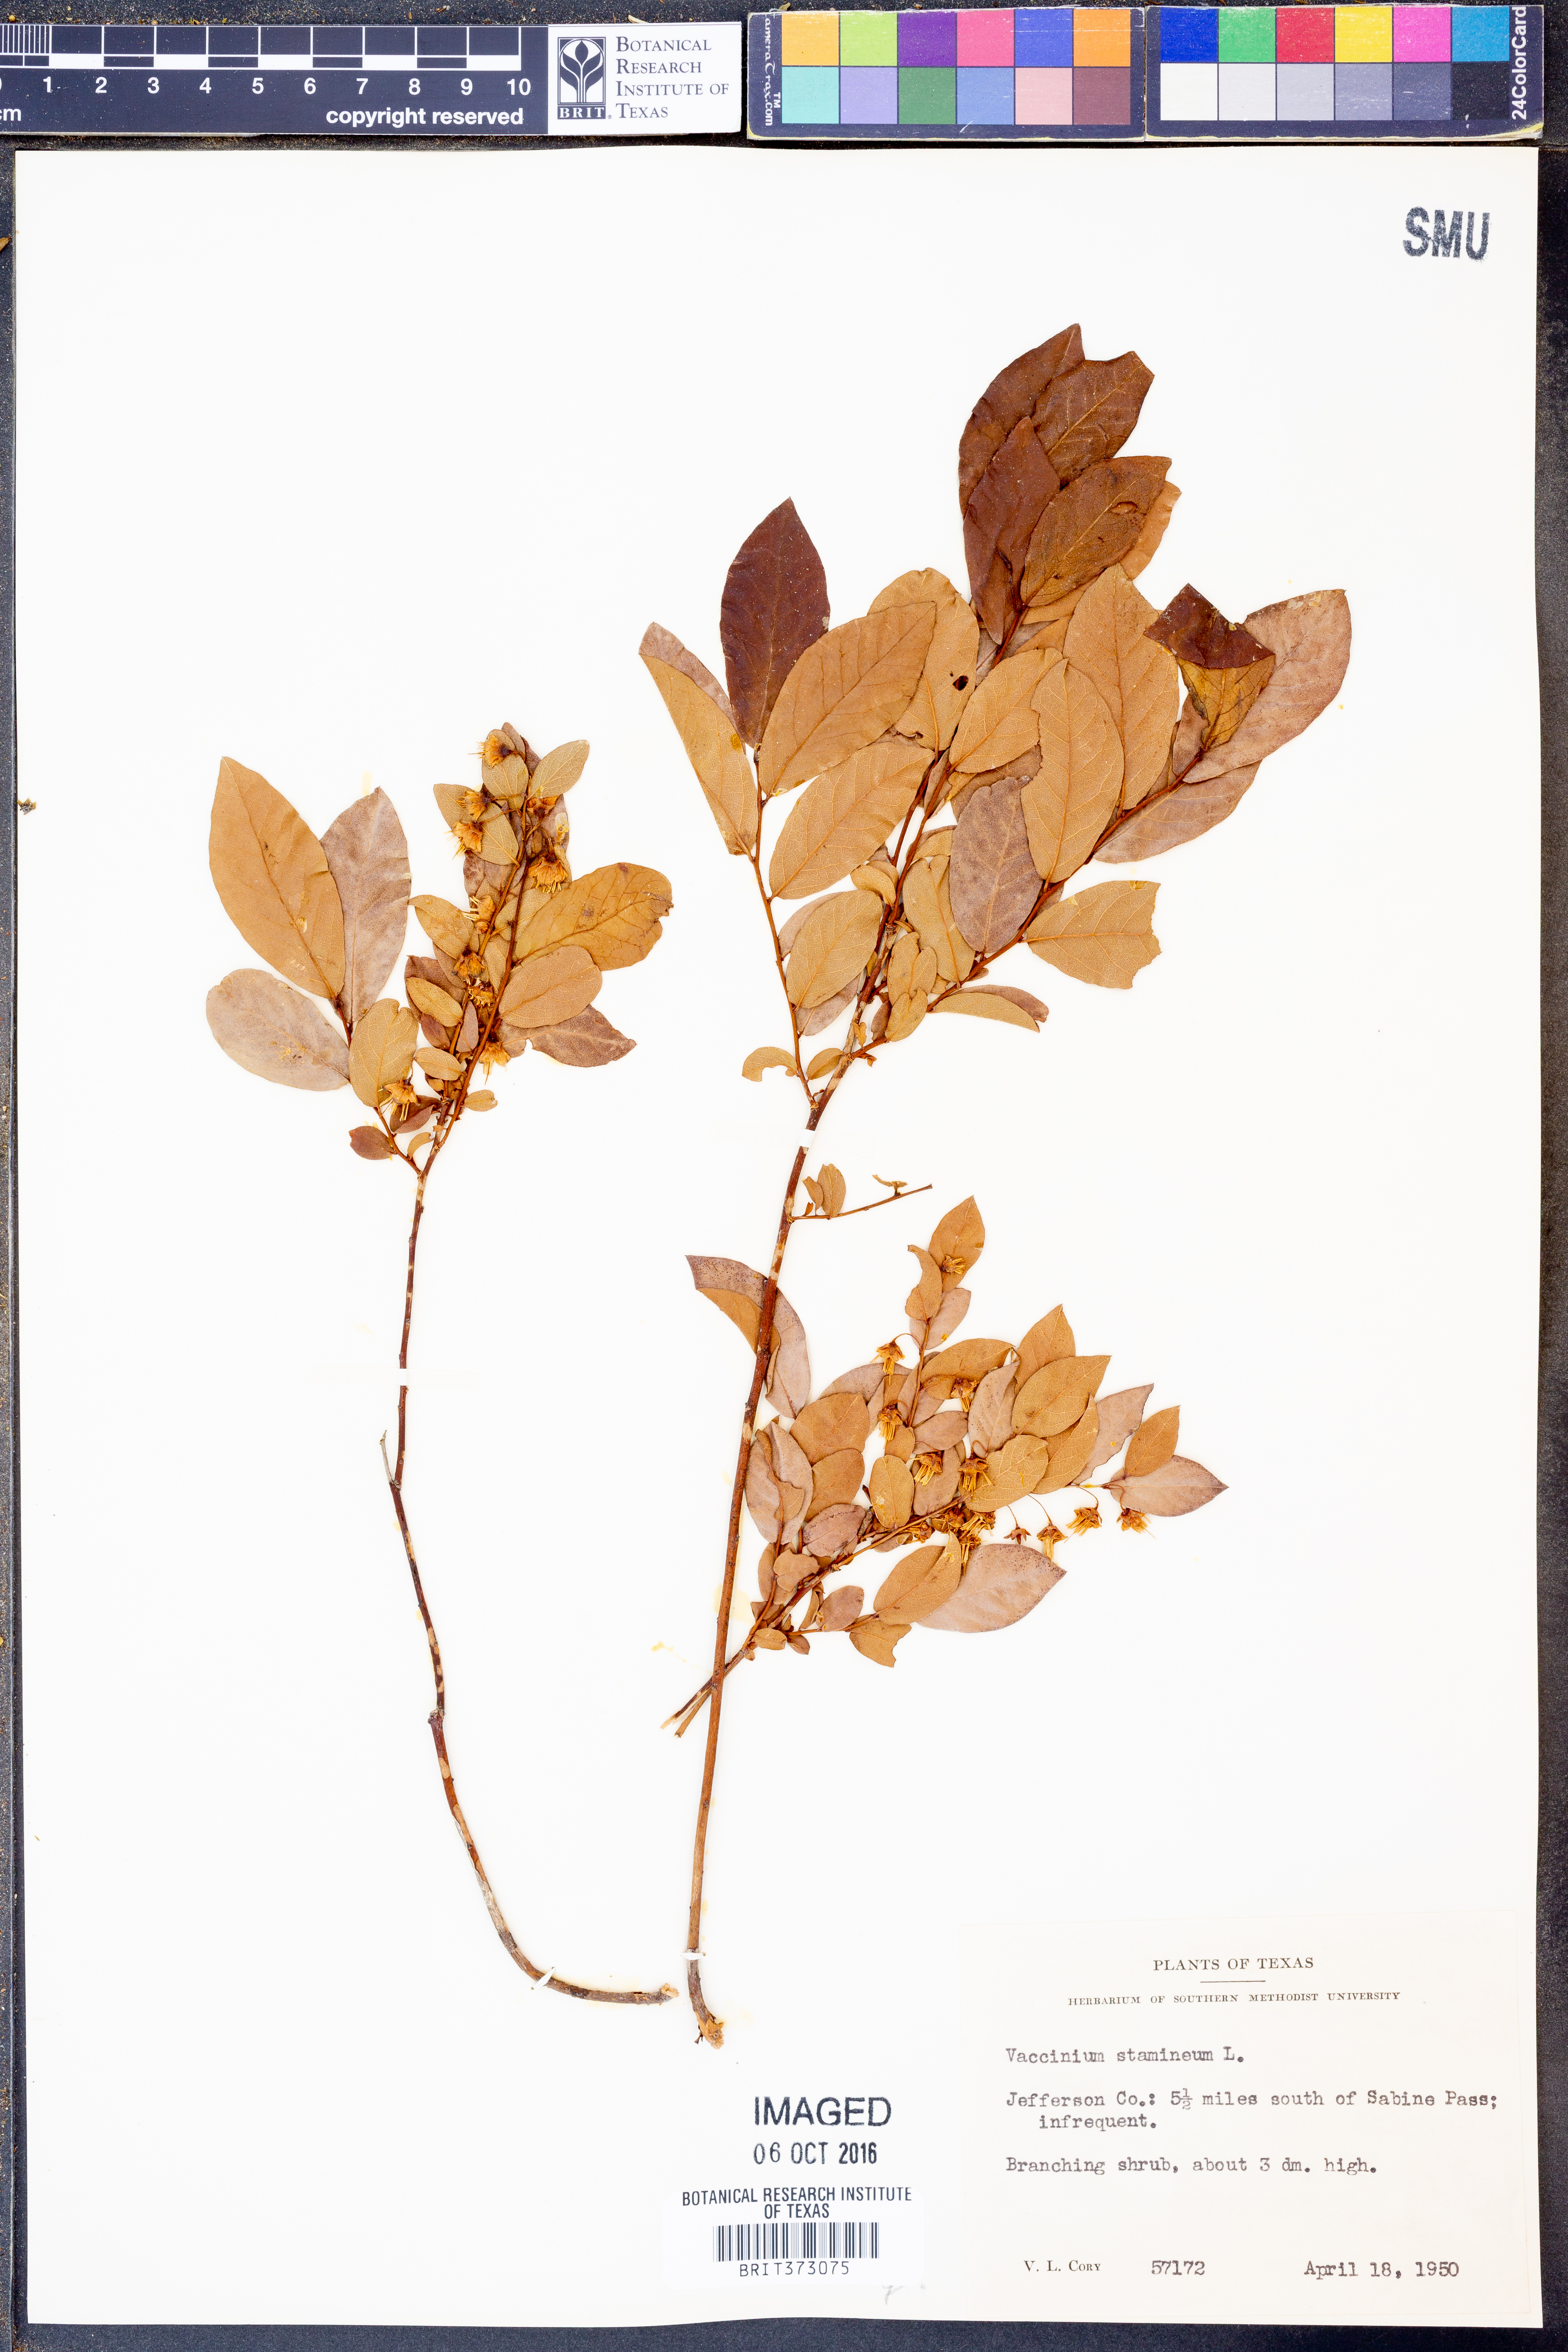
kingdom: Plantae
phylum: Tracheophyta
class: Magnoliopsida
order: Ericales
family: Ericaceae
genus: Vaccinium
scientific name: Vaccinium stamineum
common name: Deerberry
